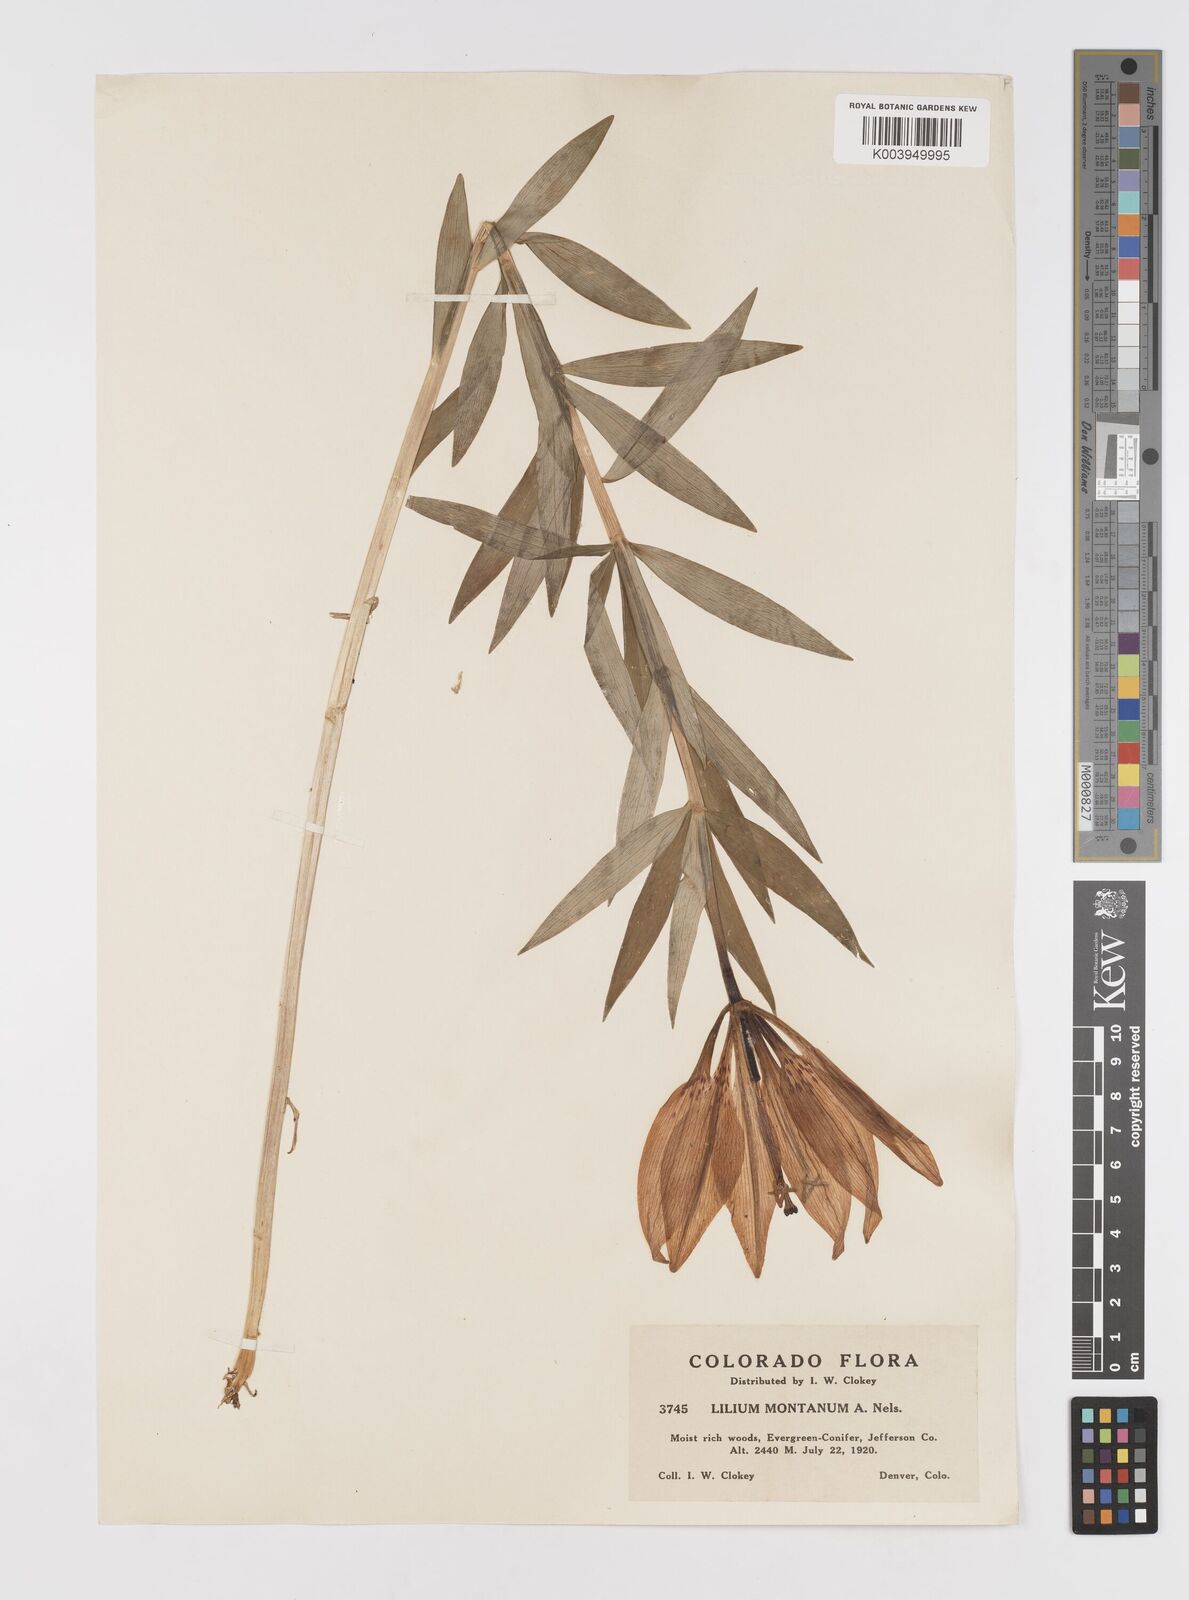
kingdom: Plantae
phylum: Tracheophyta
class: Liliopsida
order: Liliales
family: Liliaceae
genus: Lilium
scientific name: Lilium philadelphicum
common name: Red lily
